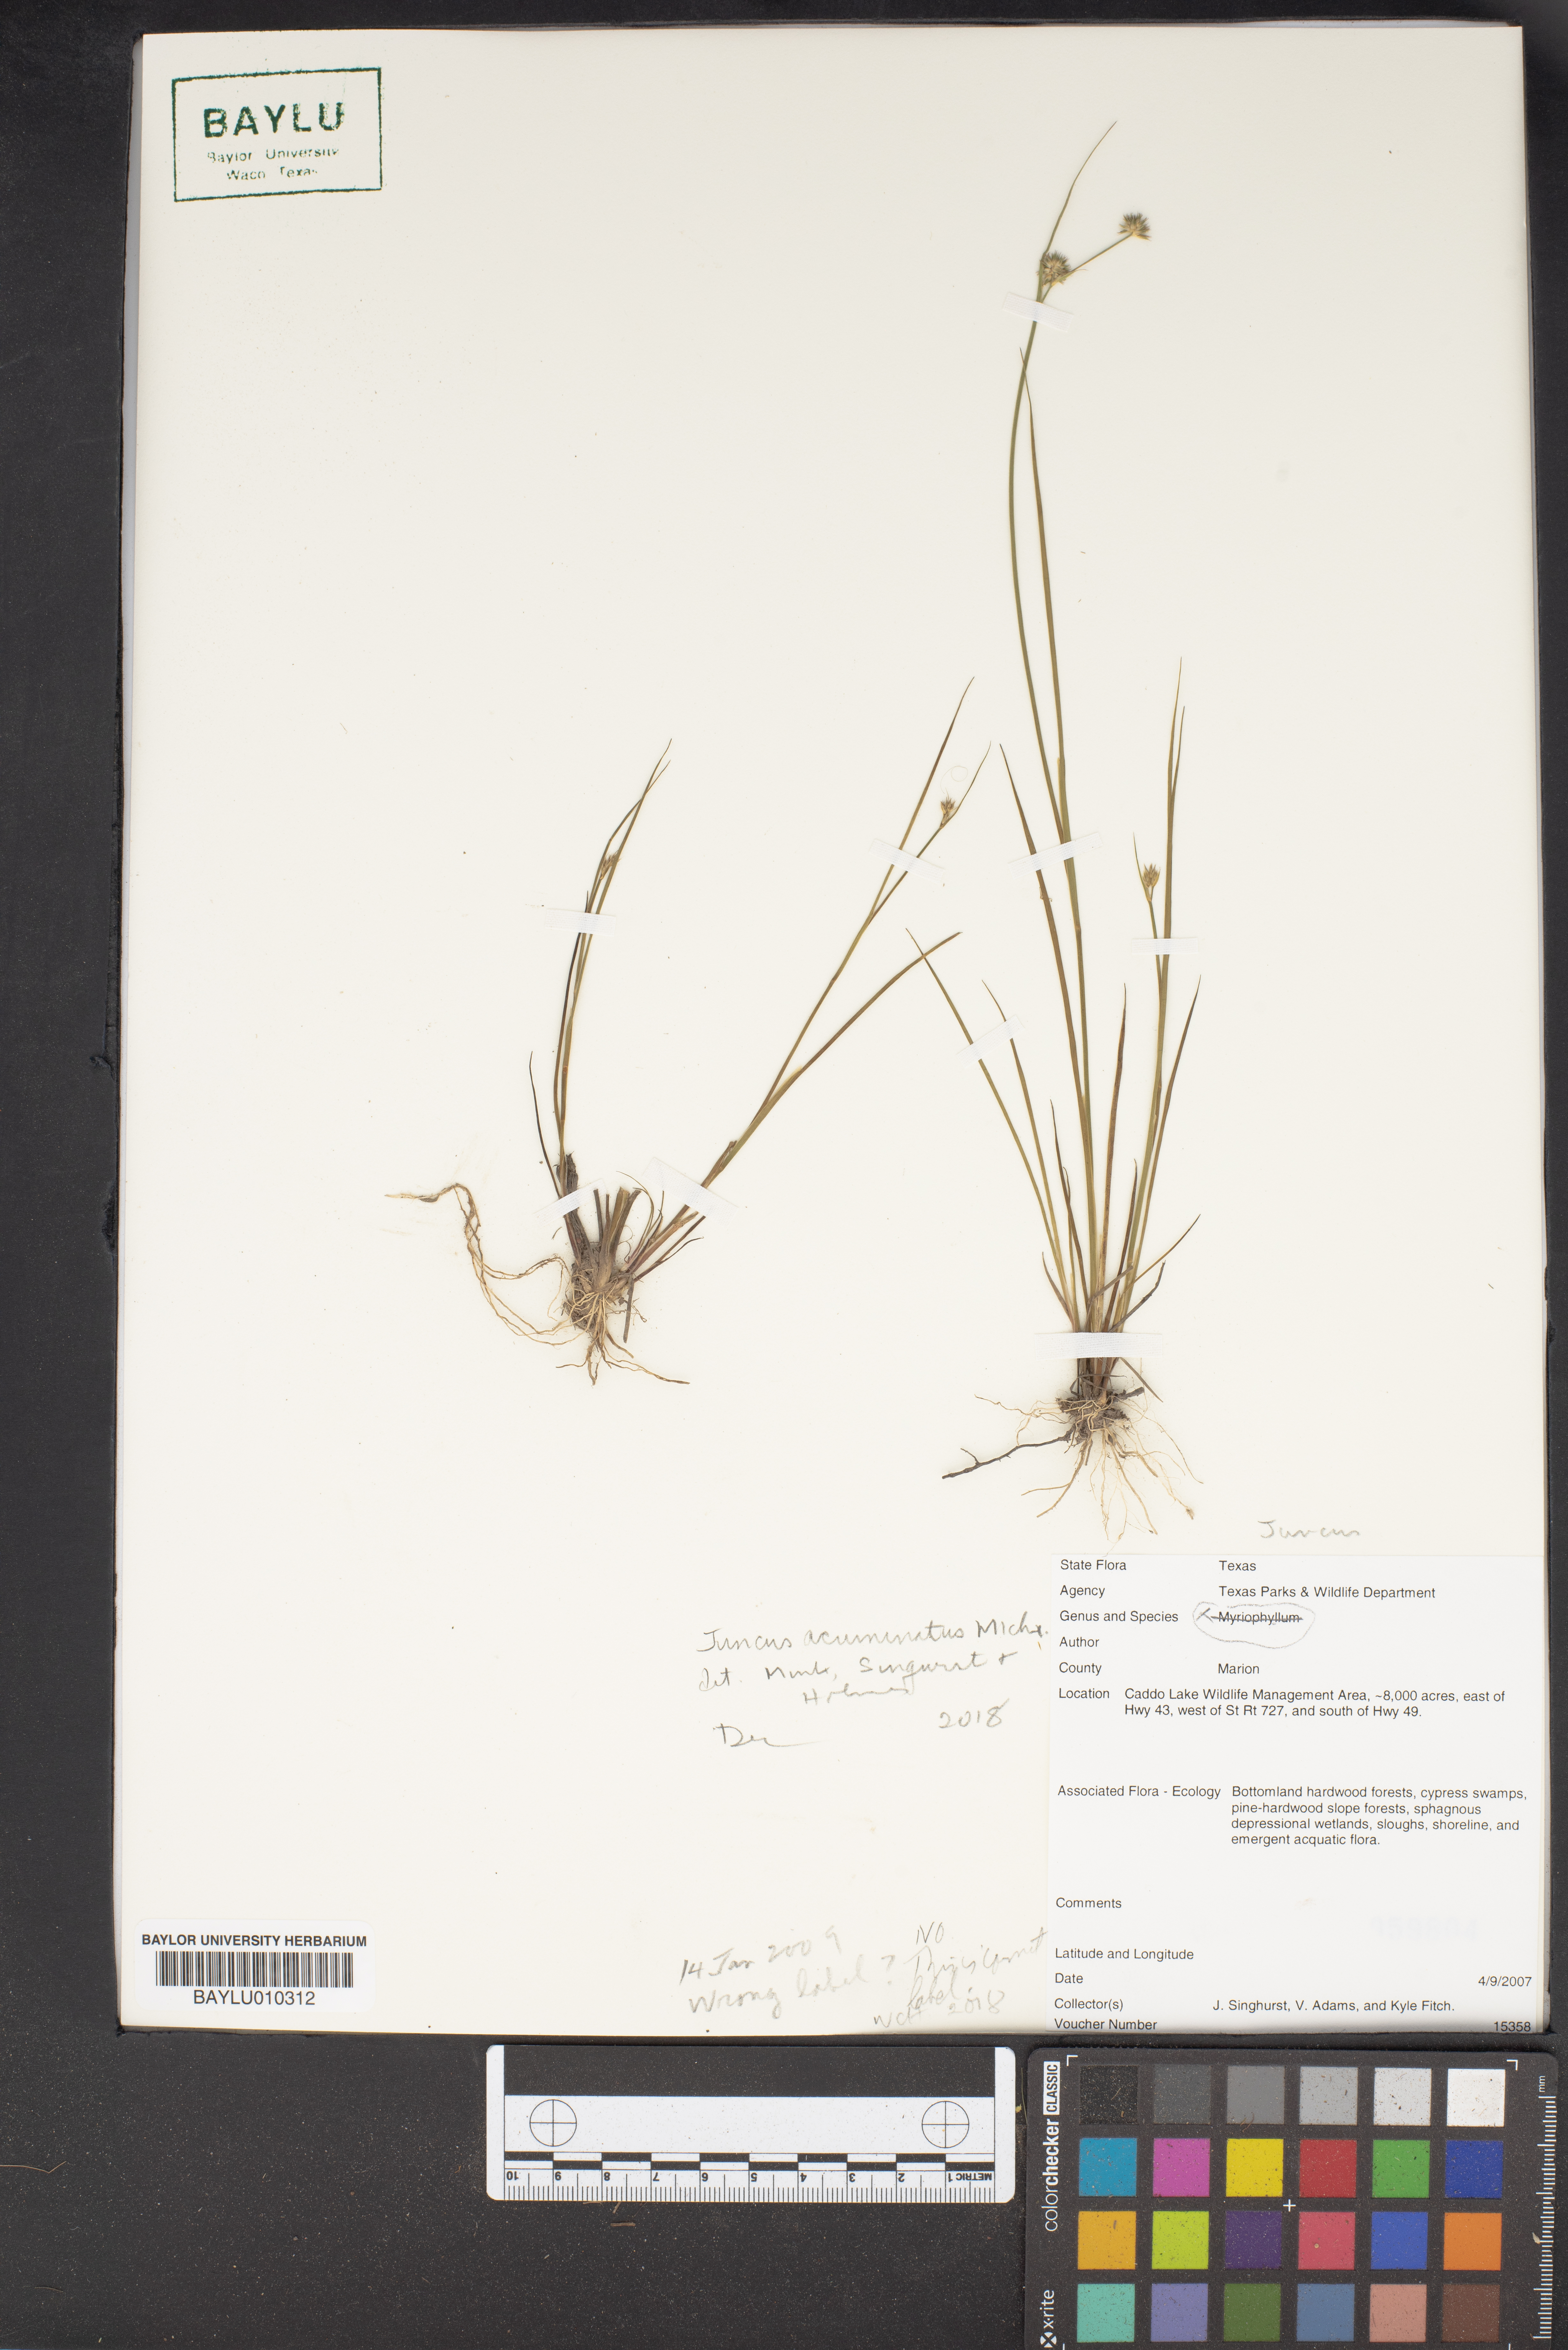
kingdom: Plantae
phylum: Tracheophyta
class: Liliopsida
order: Poales
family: Juncaceae
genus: Juncus
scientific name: Juncus acuminatus
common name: Knotty-leaved rush
